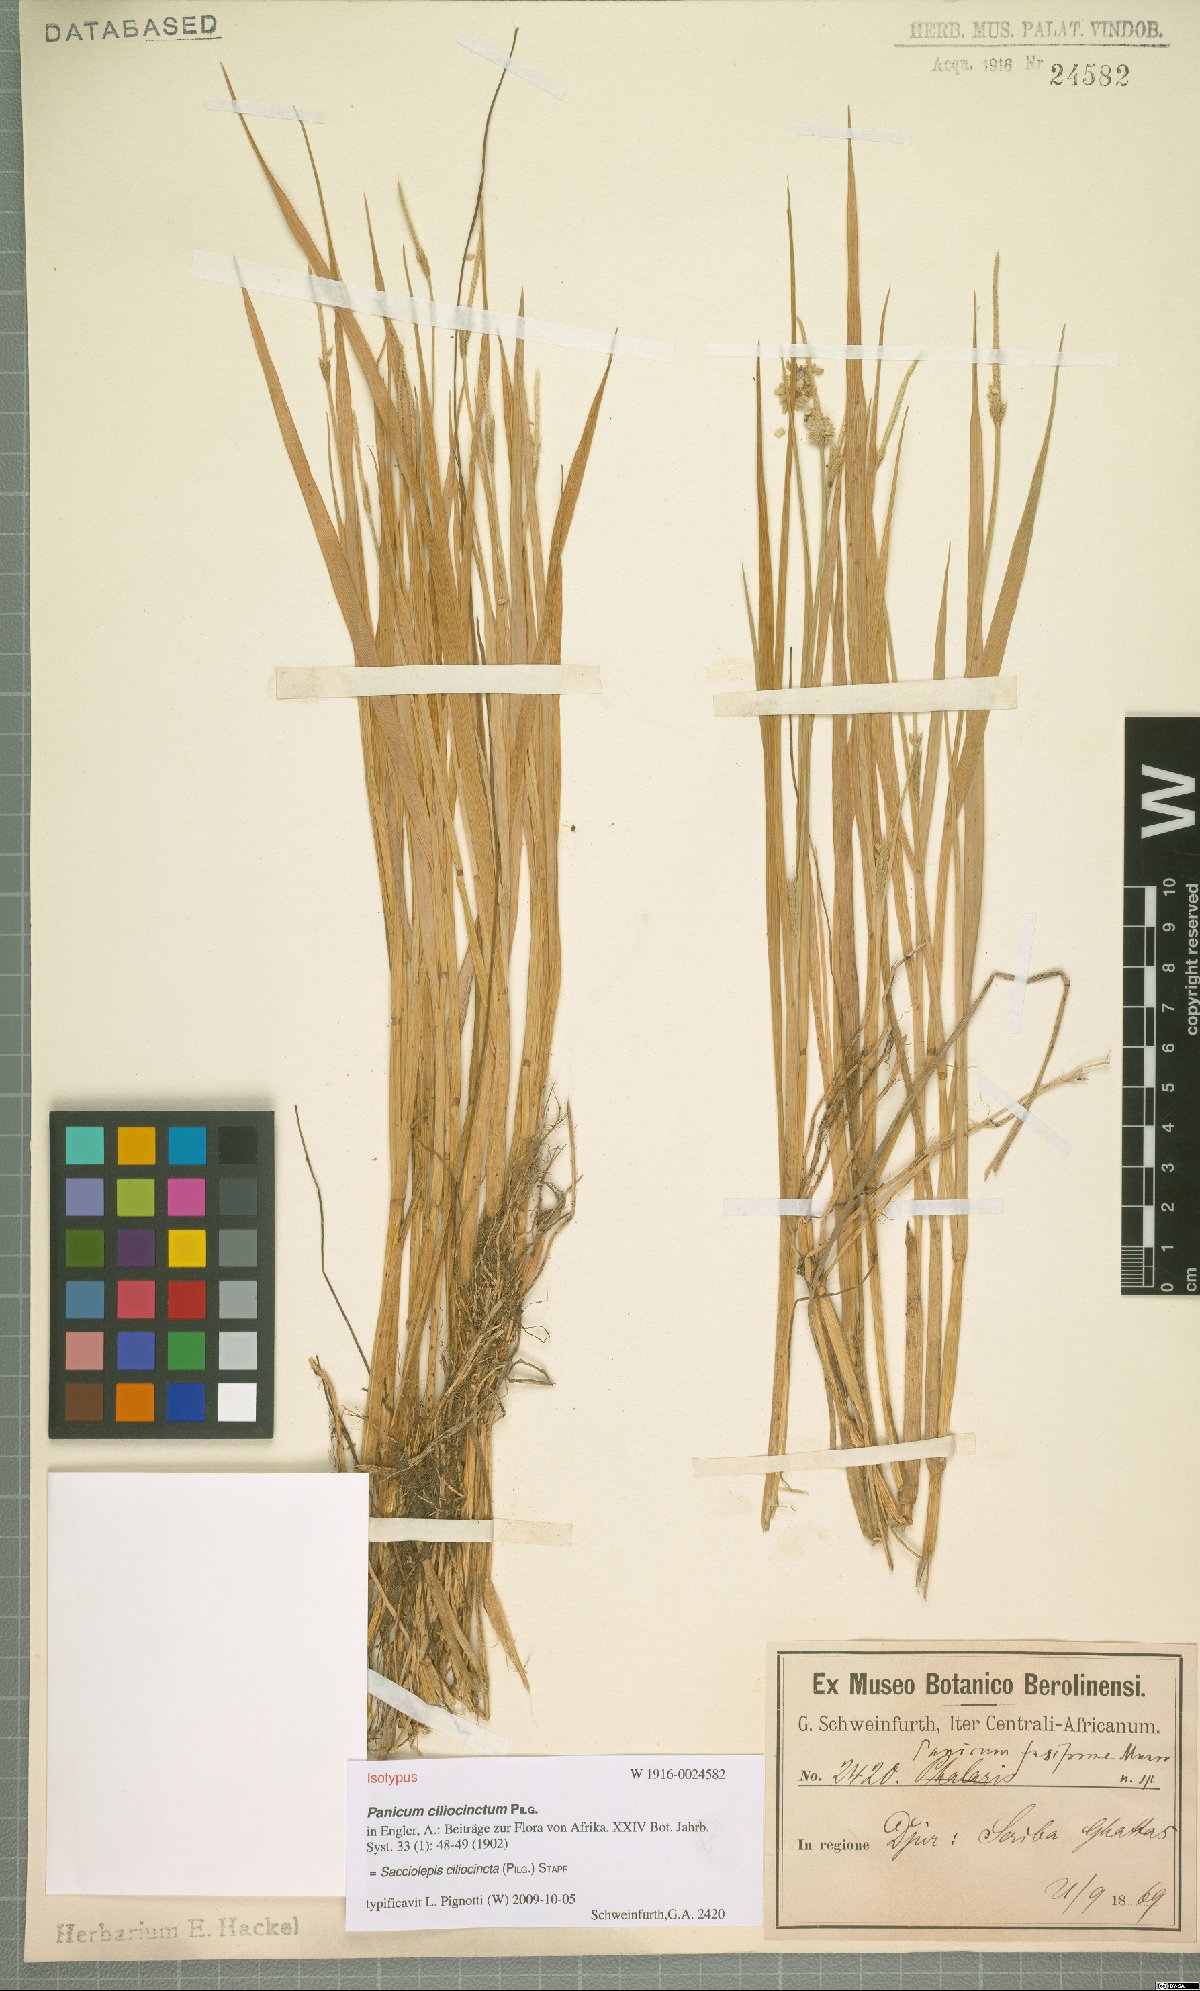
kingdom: Plantae
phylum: Tracheophyta
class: Liliopsida
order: Poales
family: Poaceae
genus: Sacciolepis
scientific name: Sacciolepis ciliocincta
